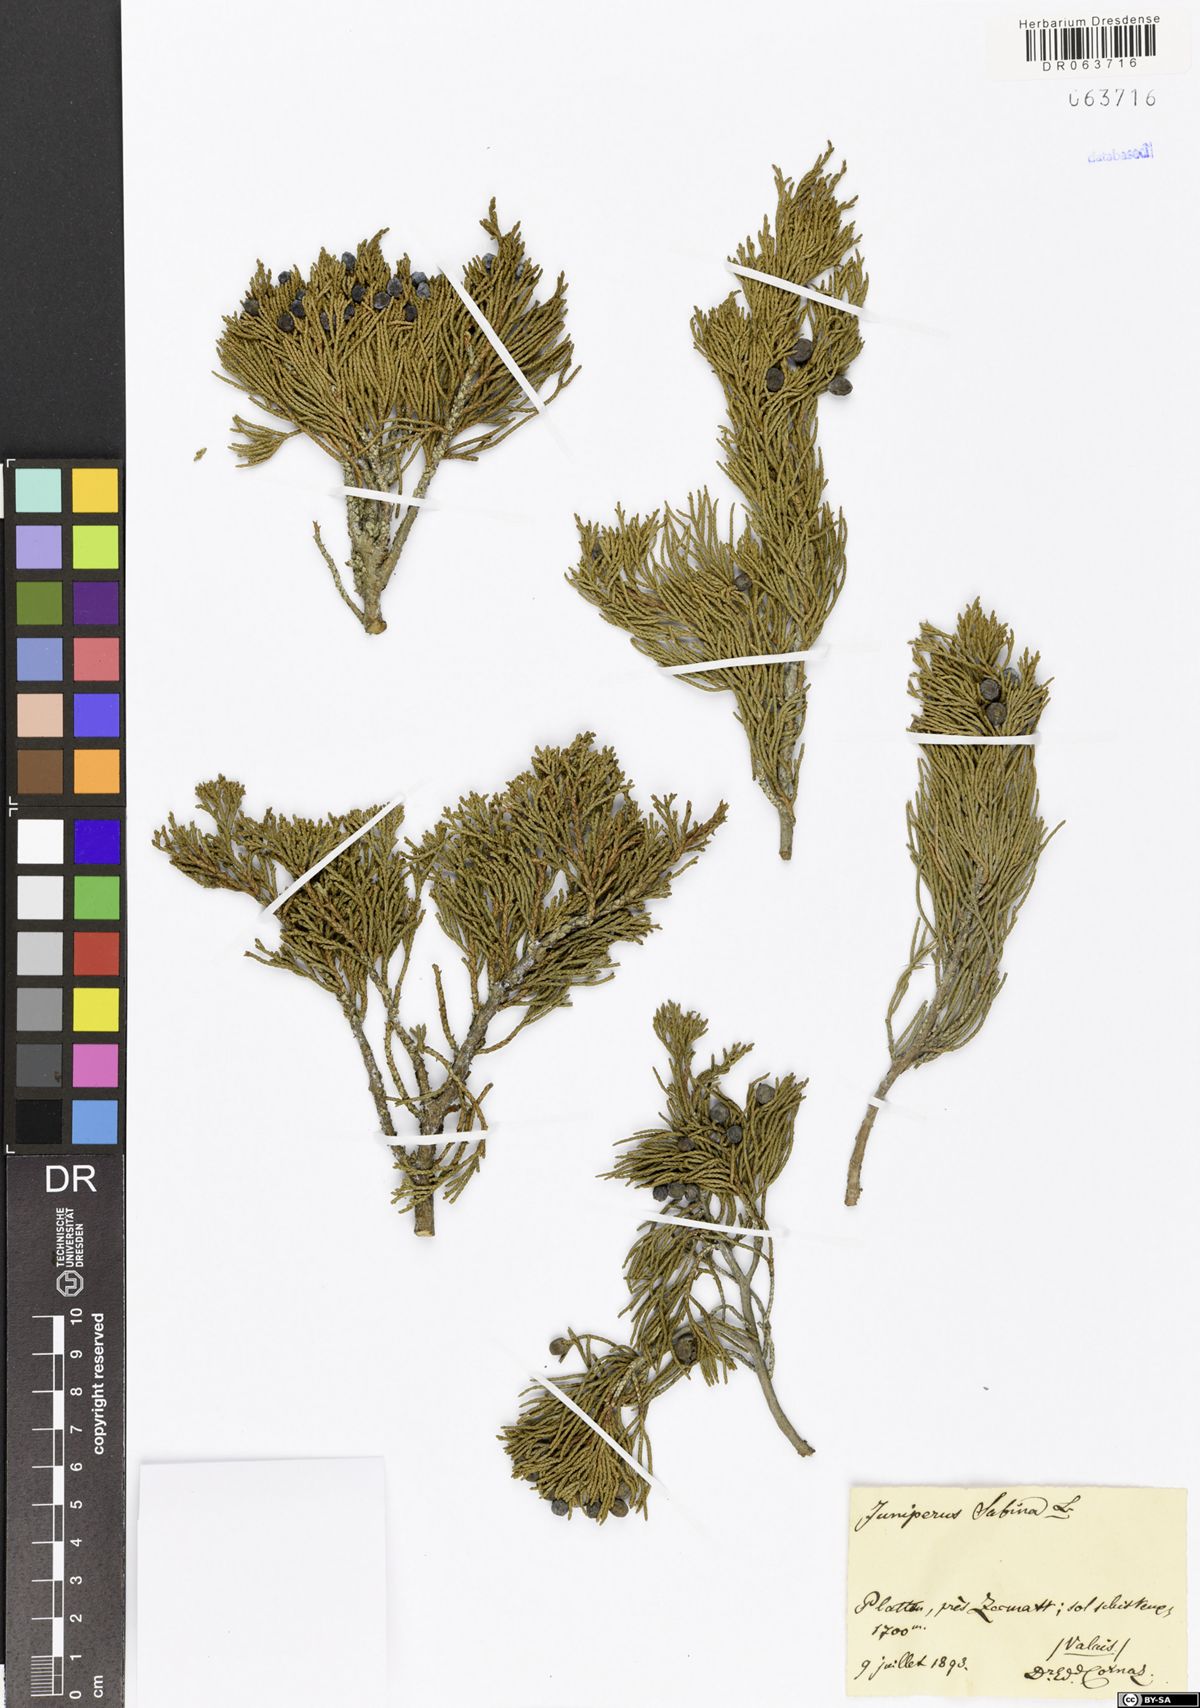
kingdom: Plantae
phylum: Tracheophyta
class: Pinopsida
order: Pinales
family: Cupressaceae
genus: Juniperus
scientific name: Juniperus sabina
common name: Savin
